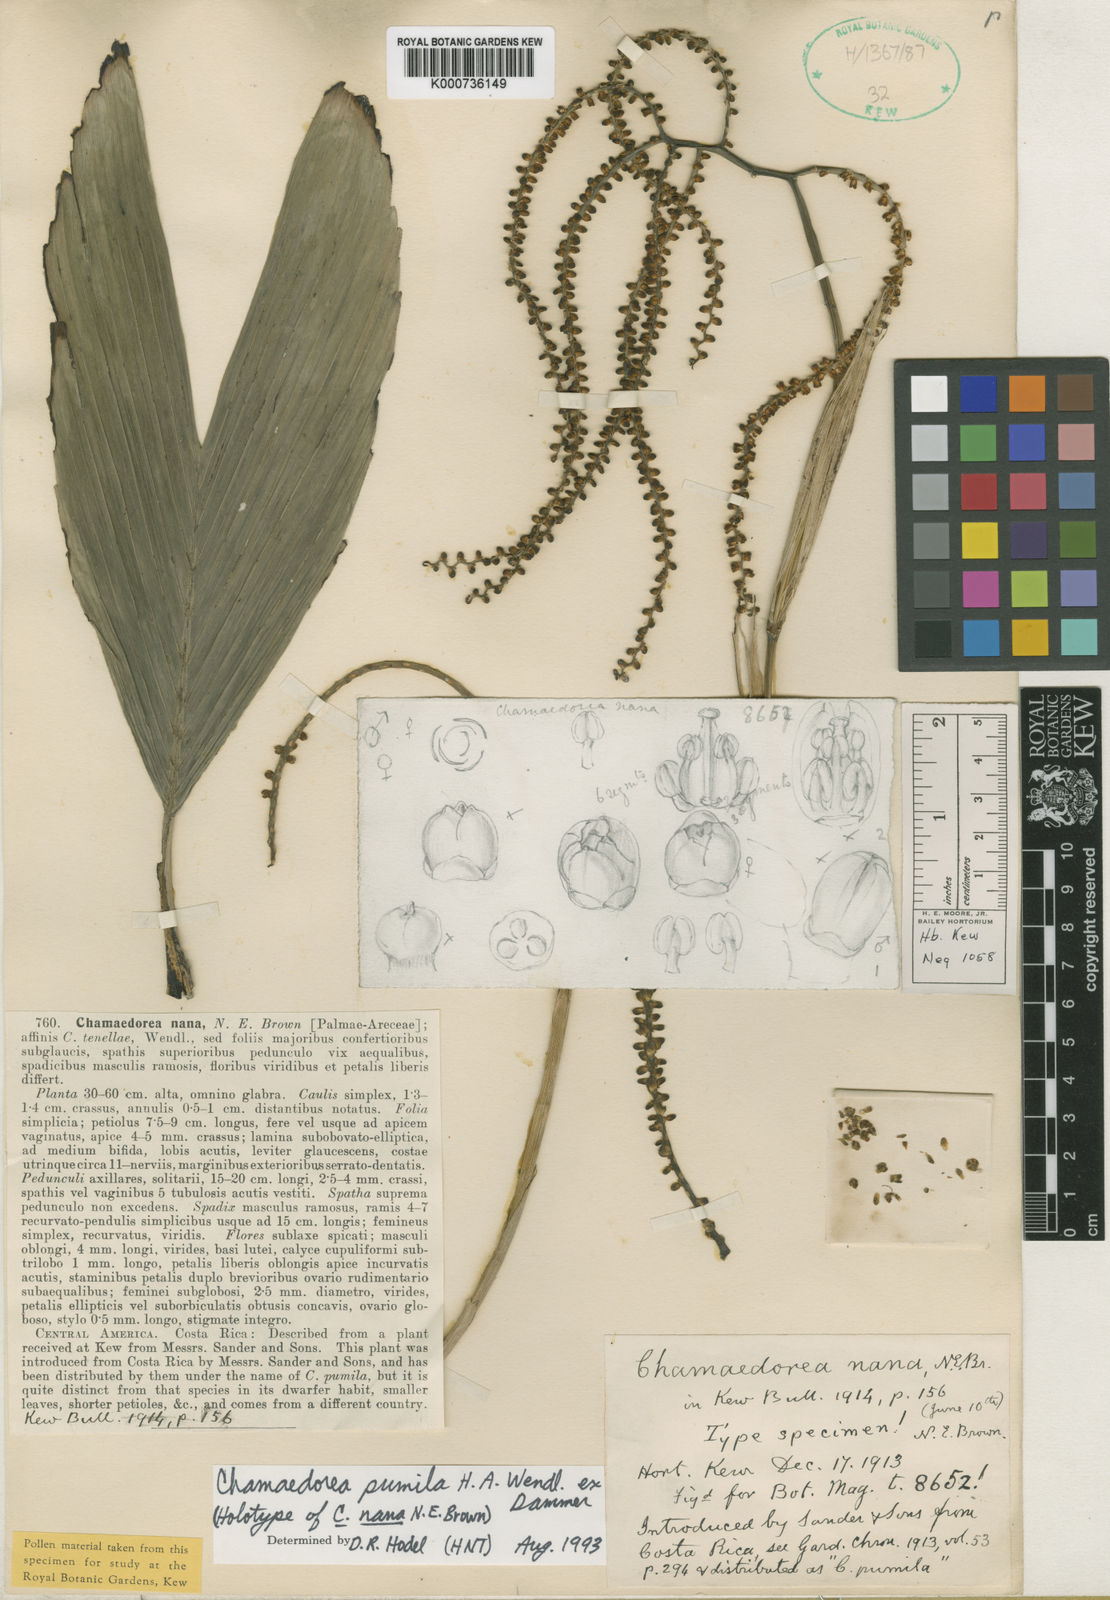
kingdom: Plantae
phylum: Tracheophyta
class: Liliopsida
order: Arecales
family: Arecaceae
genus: Chamaedorea
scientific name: Chamaedorea pumila
